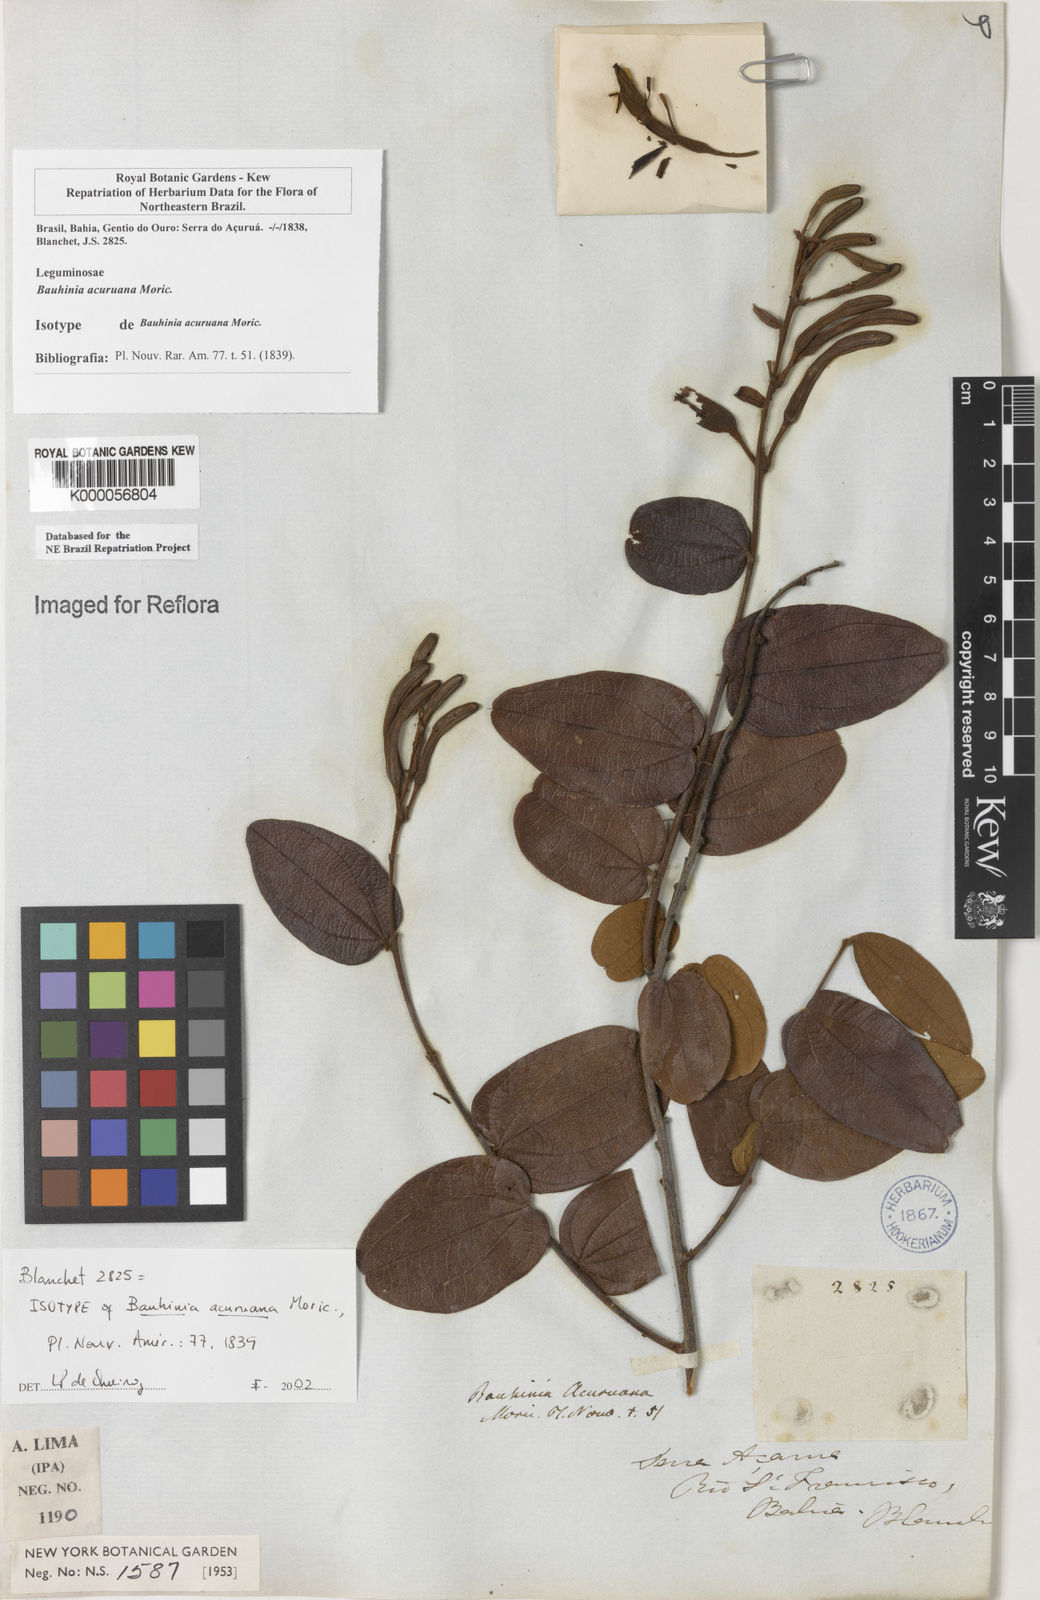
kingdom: Plantae
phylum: Tracheophyta
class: Magnoliopsida
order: Fabales
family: Fabaceae
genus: Bauhinia
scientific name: Bauhinia acuruana
